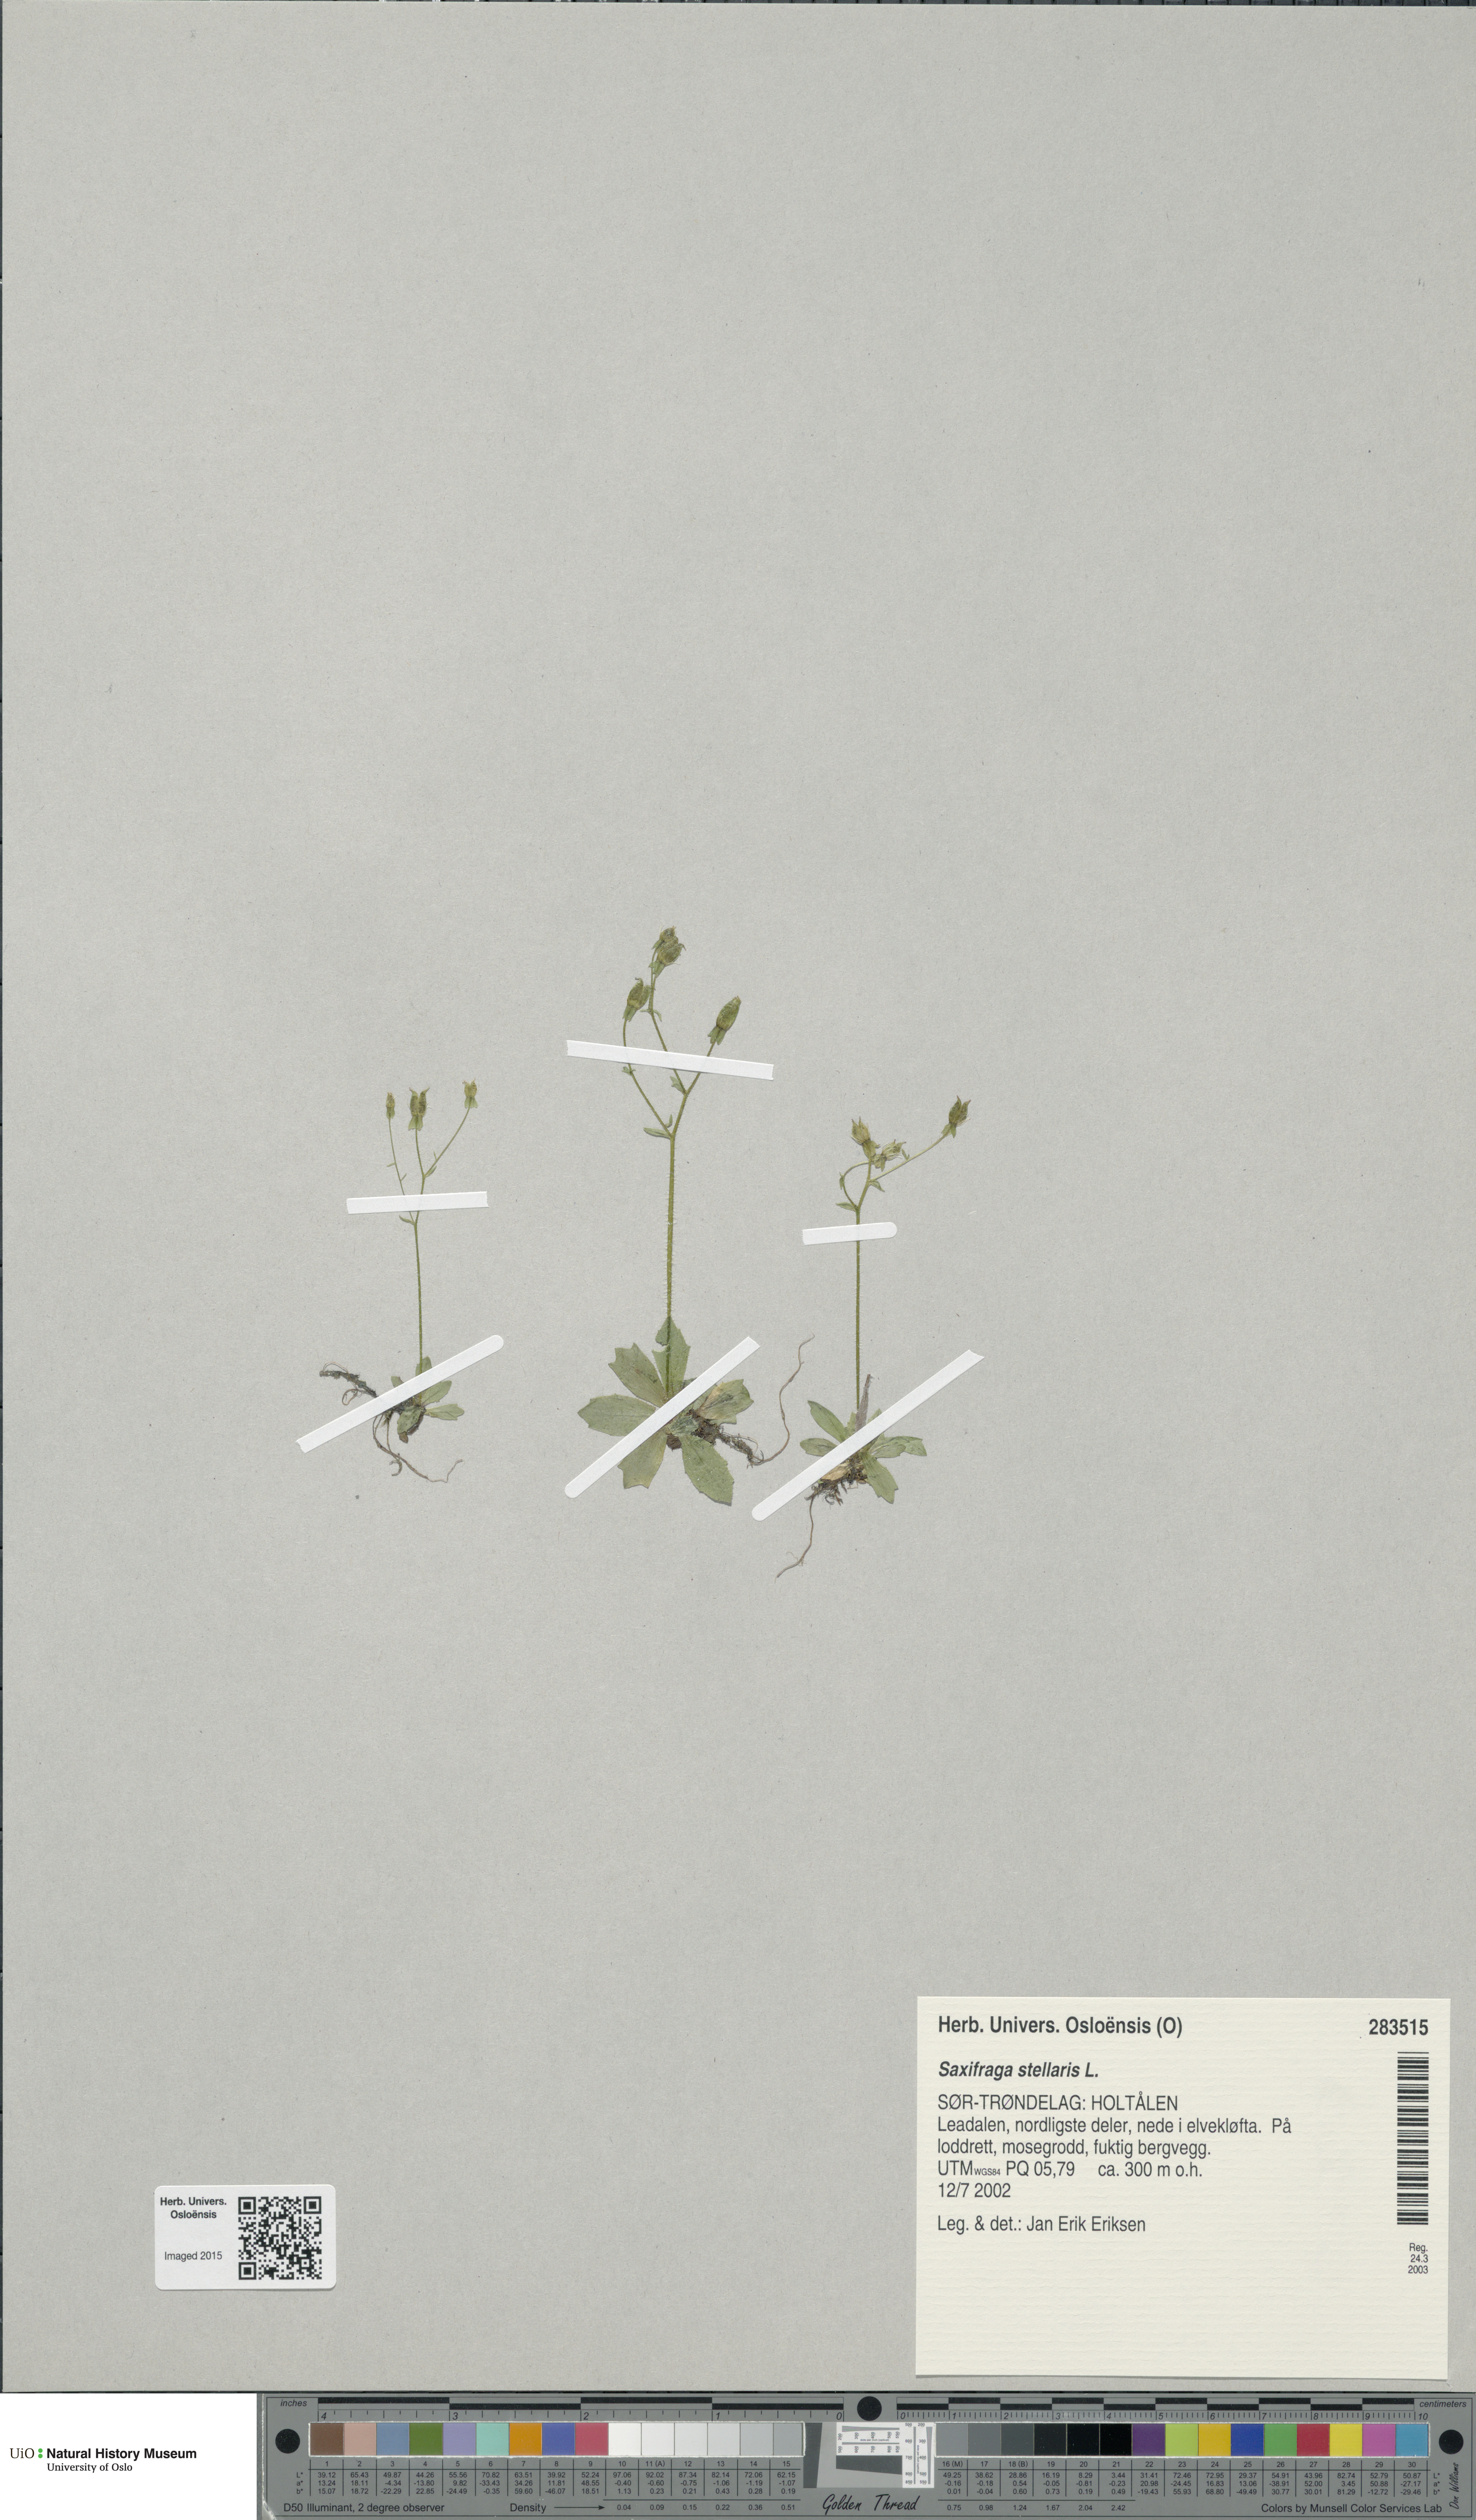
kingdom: Plantae
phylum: Tracheophyta
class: Magnoliopsida
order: Saxifragales
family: Saxifragaceae
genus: Micranthes
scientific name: Micranthes stellaris
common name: Starry saxifrage
